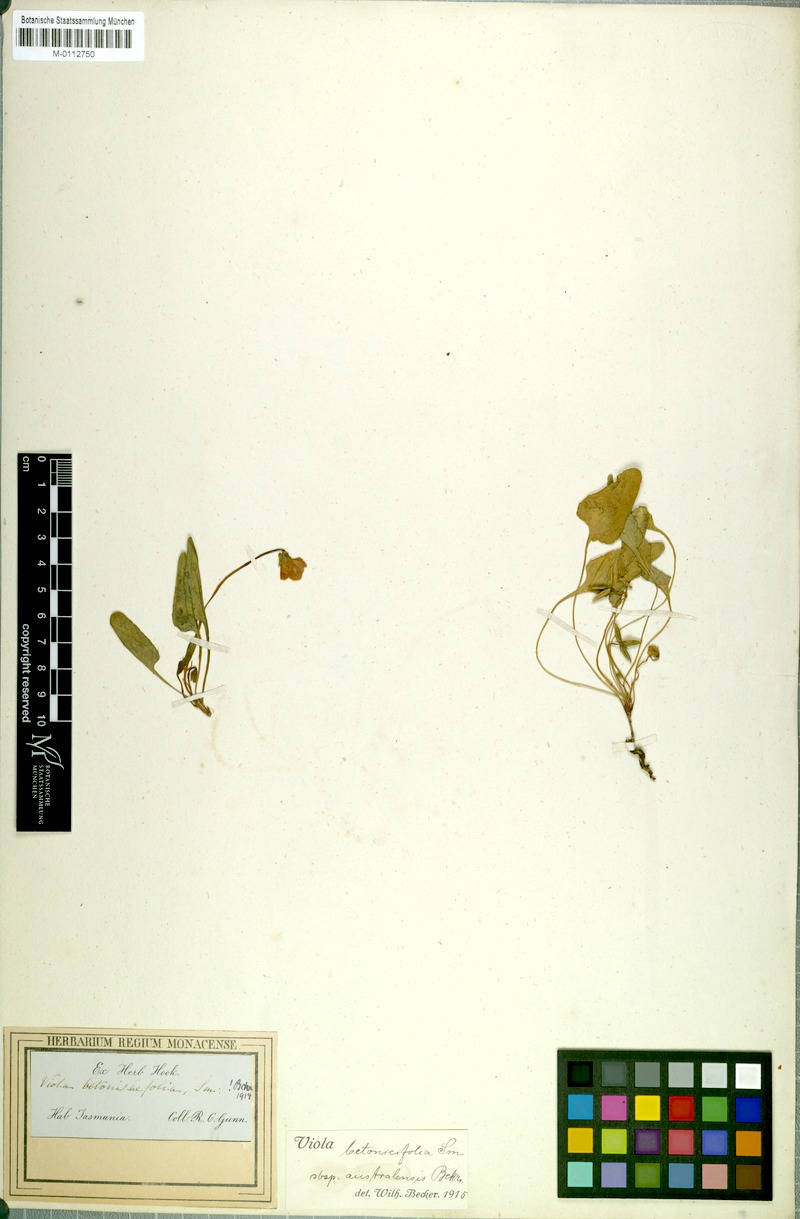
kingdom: Plantae
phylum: Tracheophyta
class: Magnoliopsida
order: Malpighiales
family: Violaceae
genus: Viola
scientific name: Viola betonicifolia
